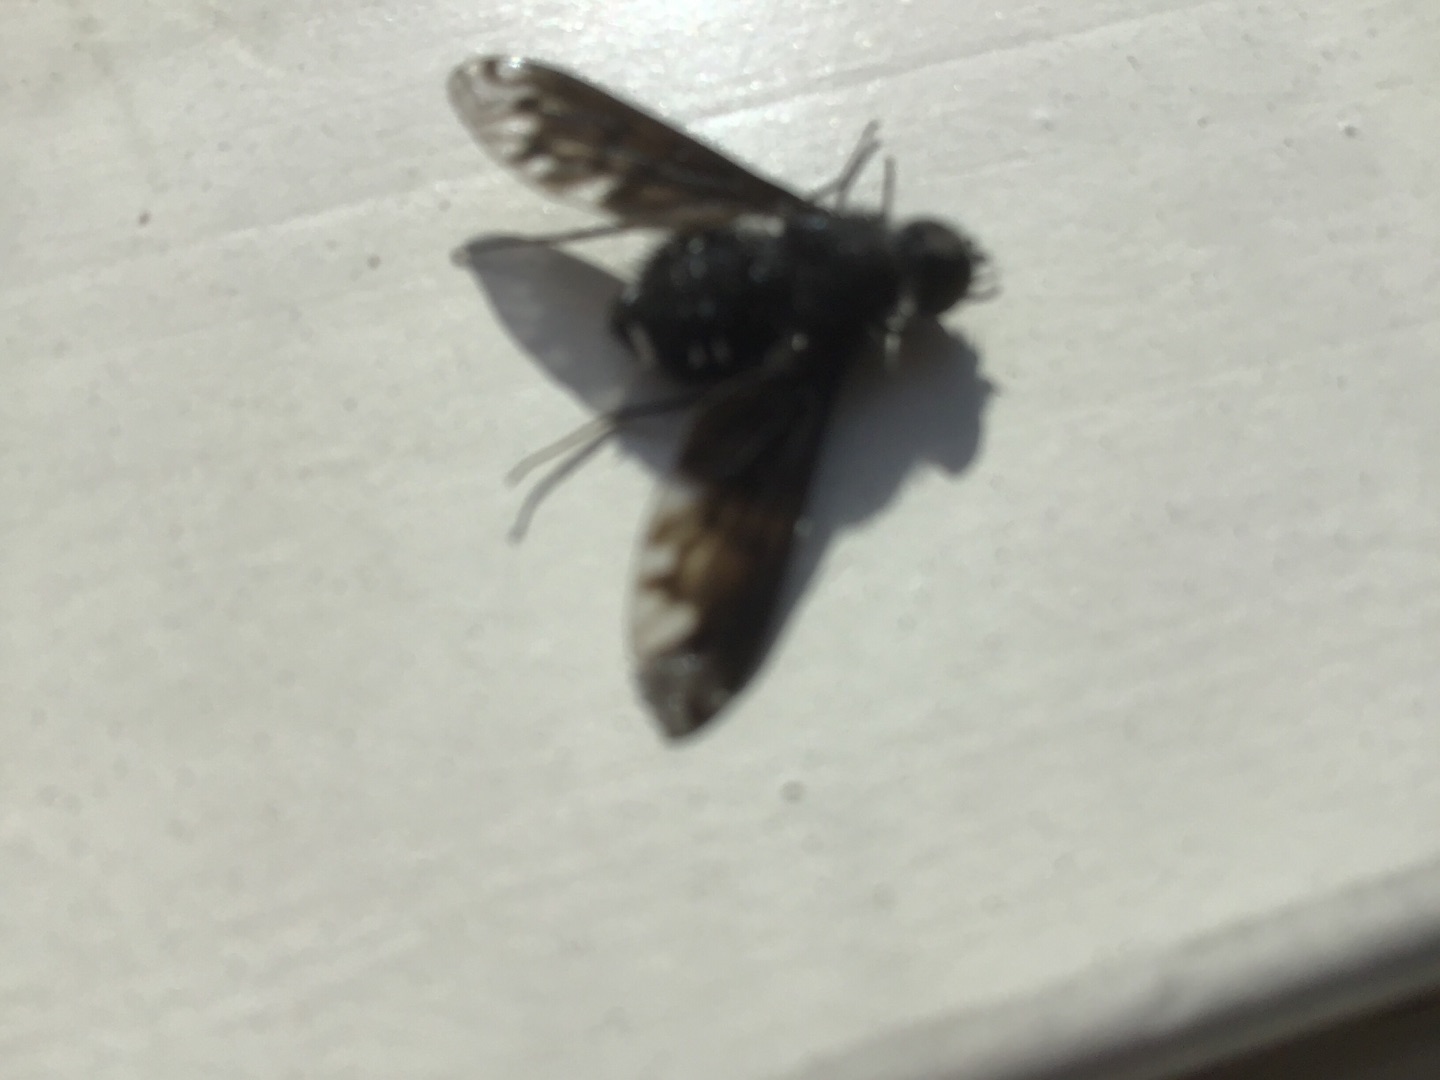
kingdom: Animalia
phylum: Arthropoda
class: Insecta
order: Diptera
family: Bombyliidae
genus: Anthrax
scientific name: Anthrax anthrax
